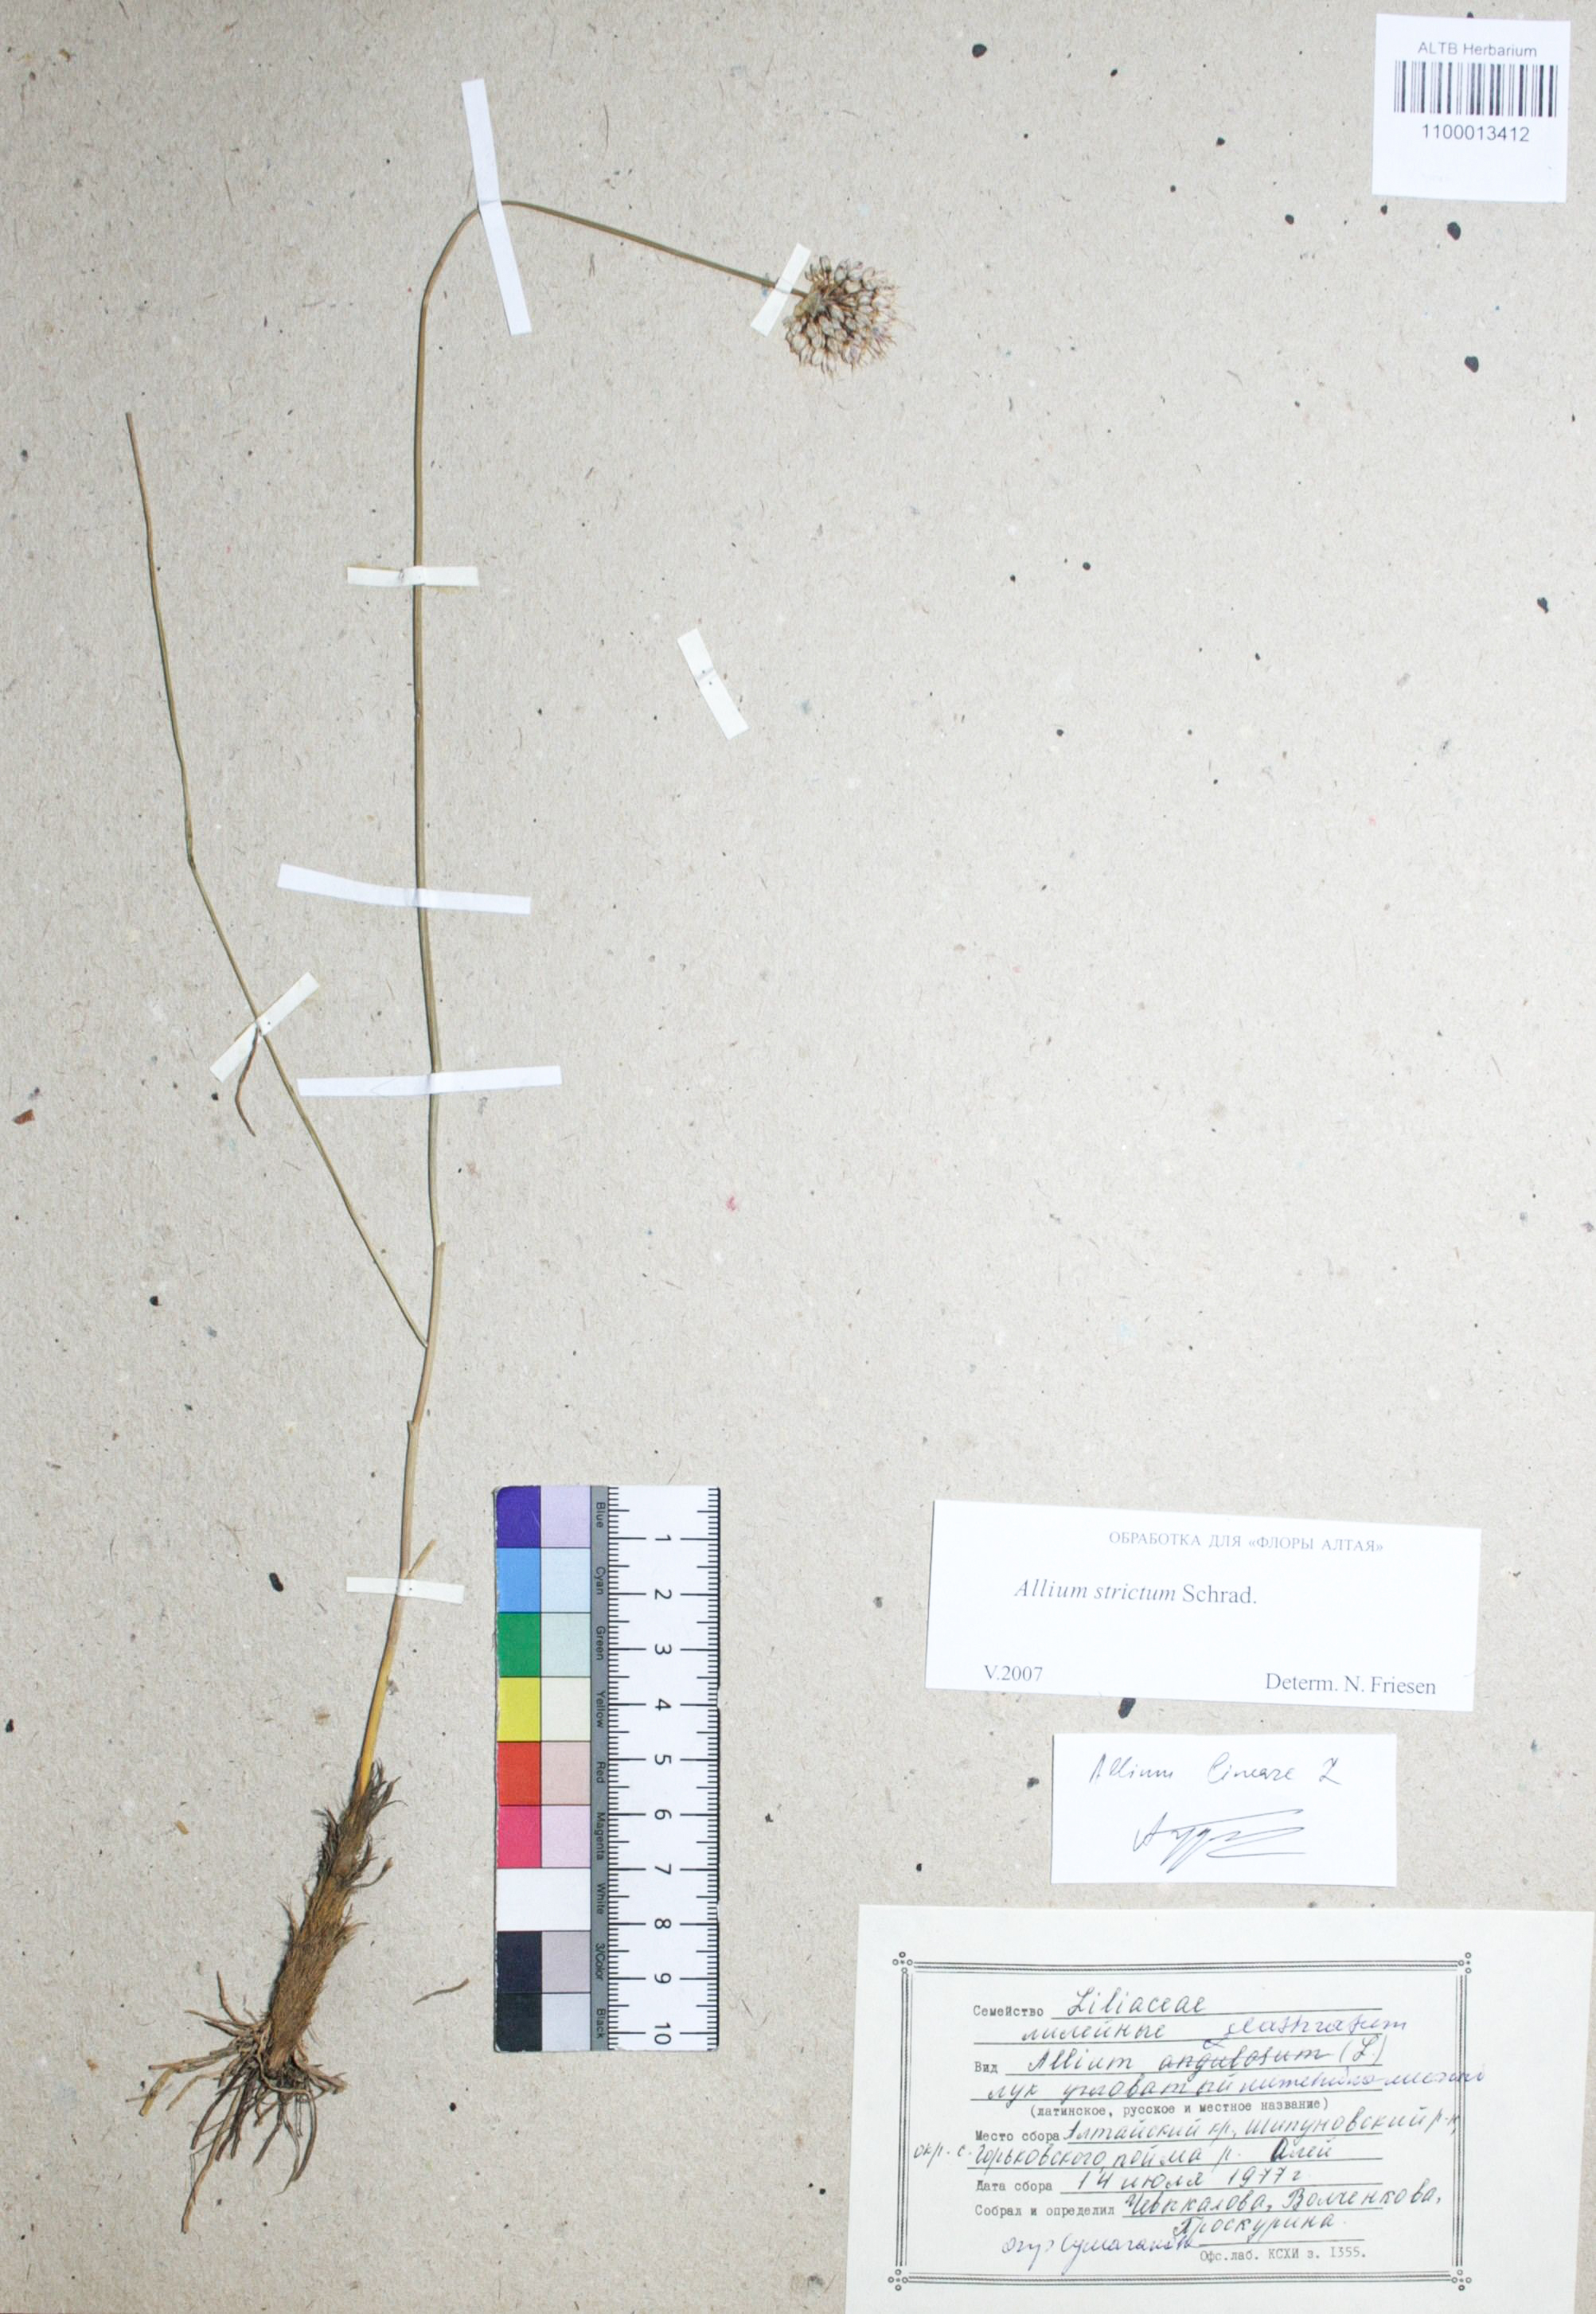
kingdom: Plantae
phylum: Tracheophyta
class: Liliopsida
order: Asparagales
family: Amaryllidaceae
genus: Allium
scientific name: Allium strictum
